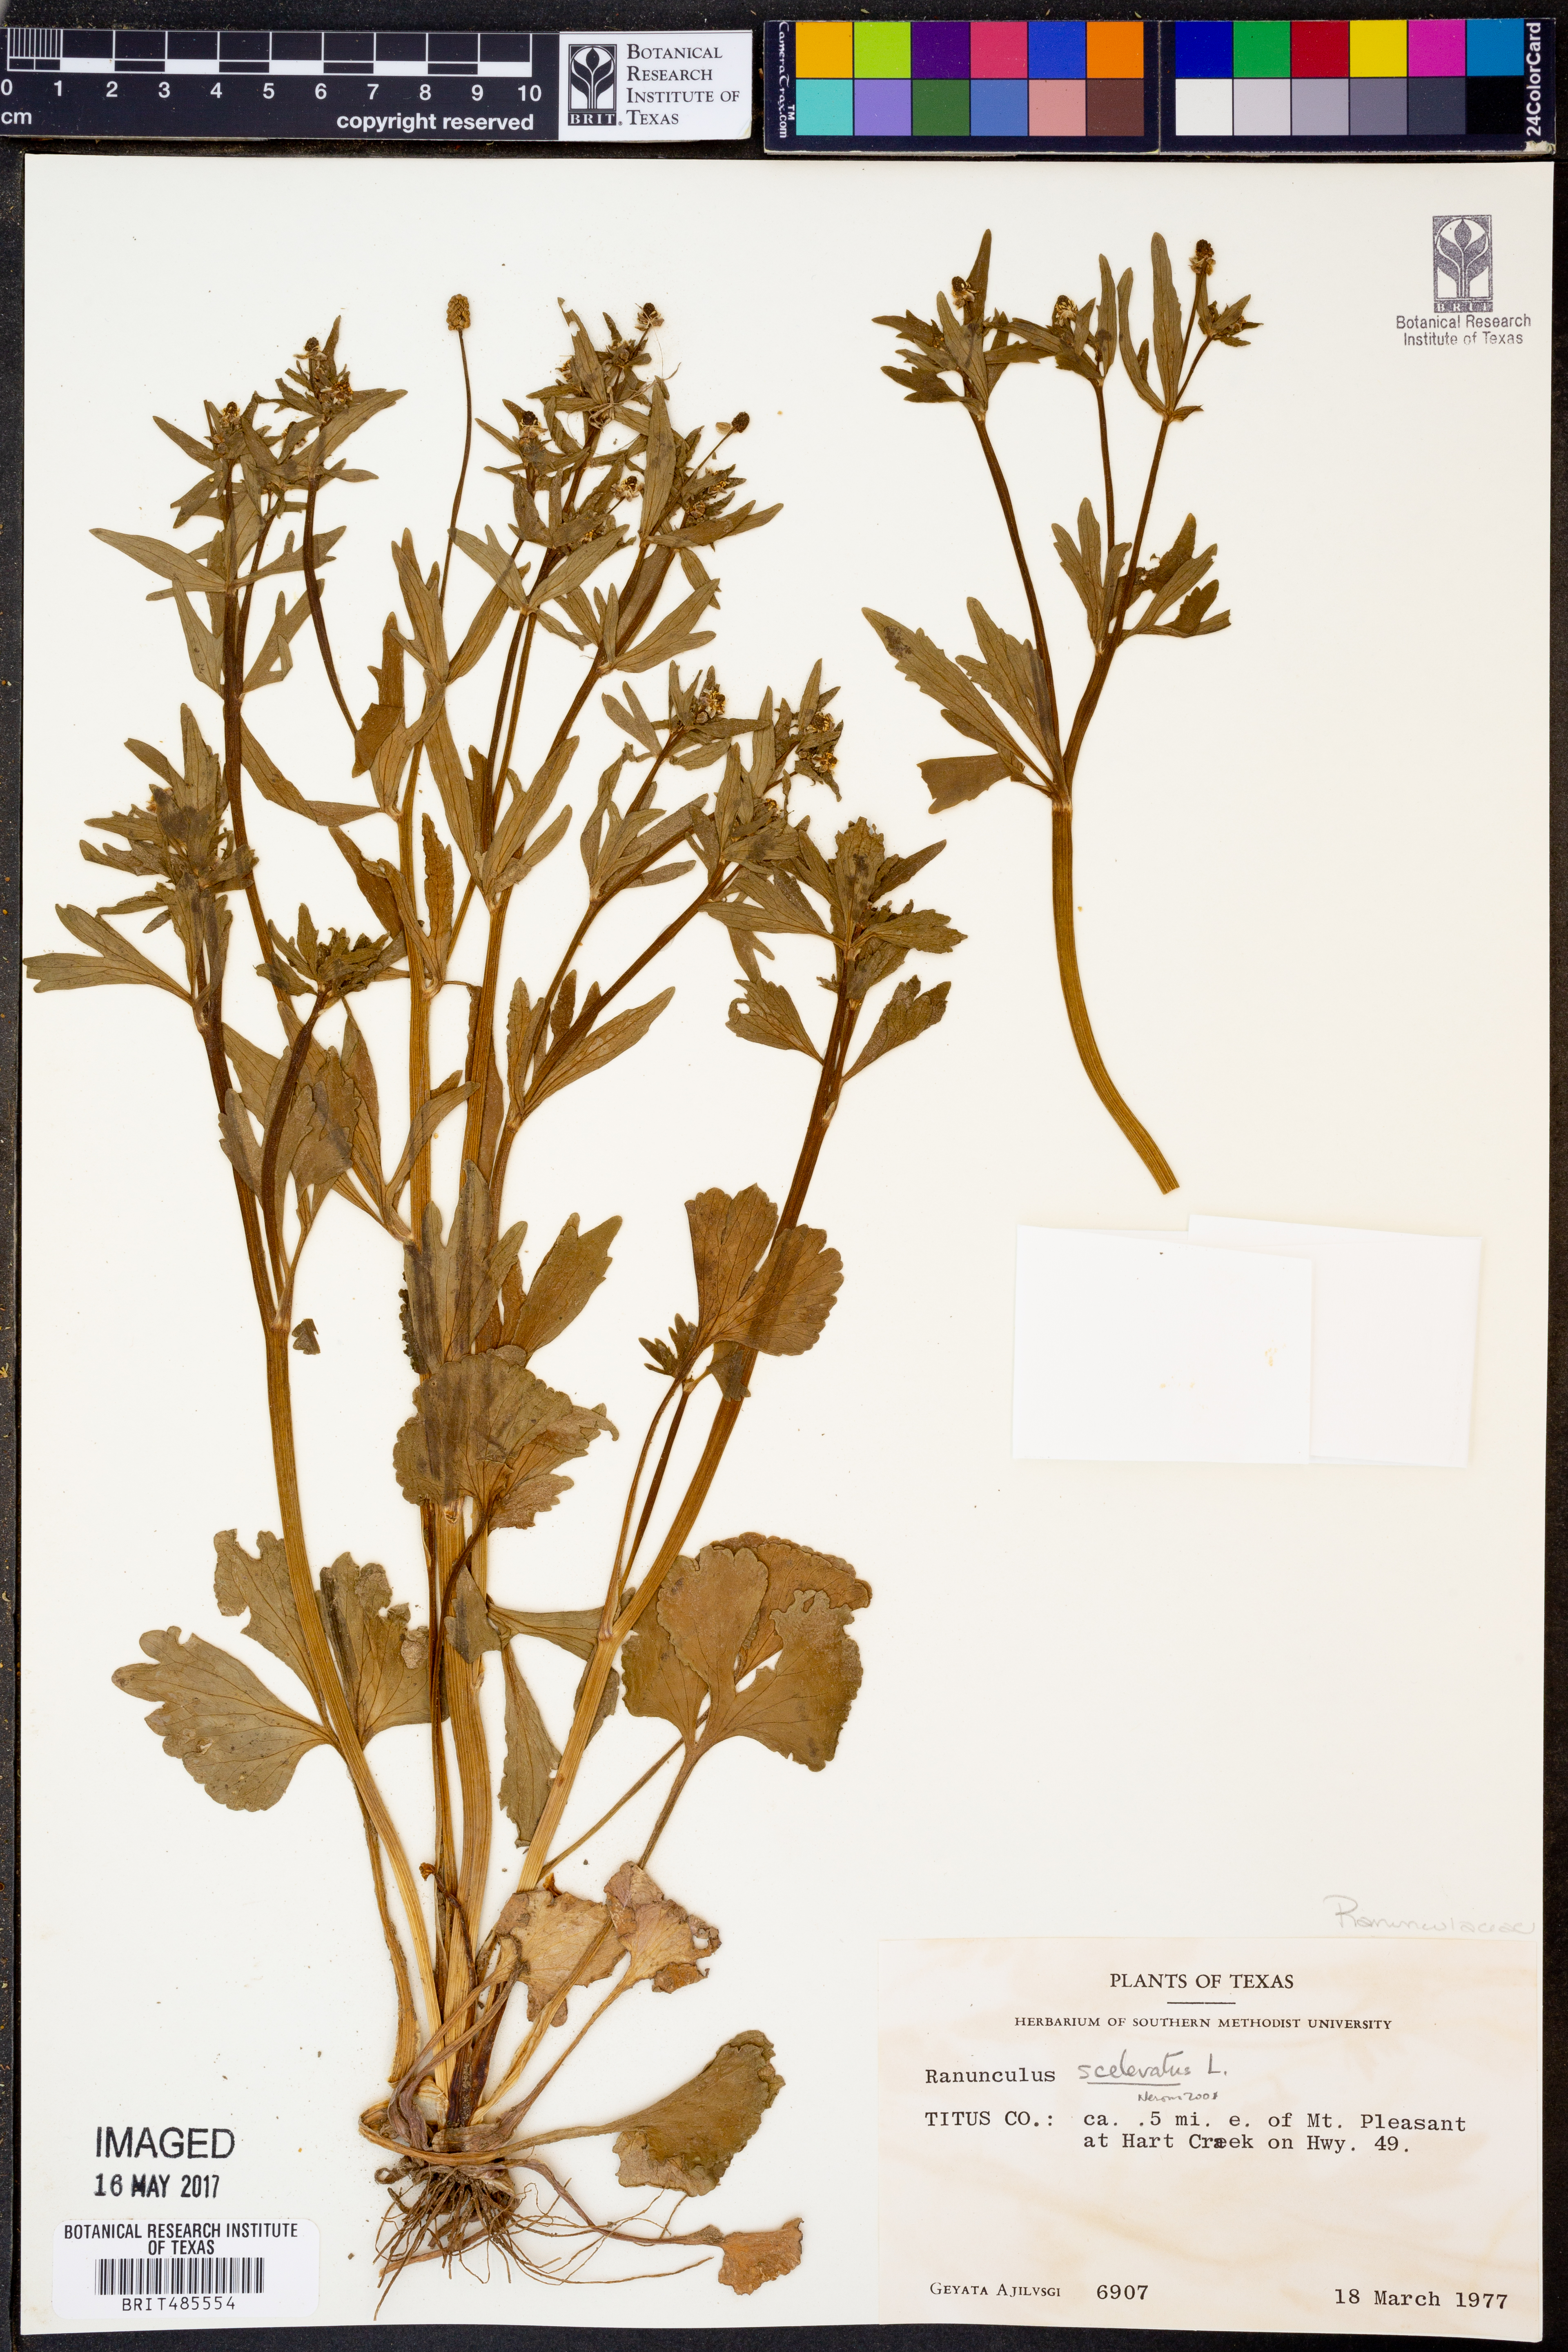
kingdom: Plantae
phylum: Tracheophyta
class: Magnoliopsida
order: Ranunculales
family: Ranunculaceae
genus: Ranunculus
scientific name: Ranunculus sceleratus
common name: Celery-leaved buttercup
